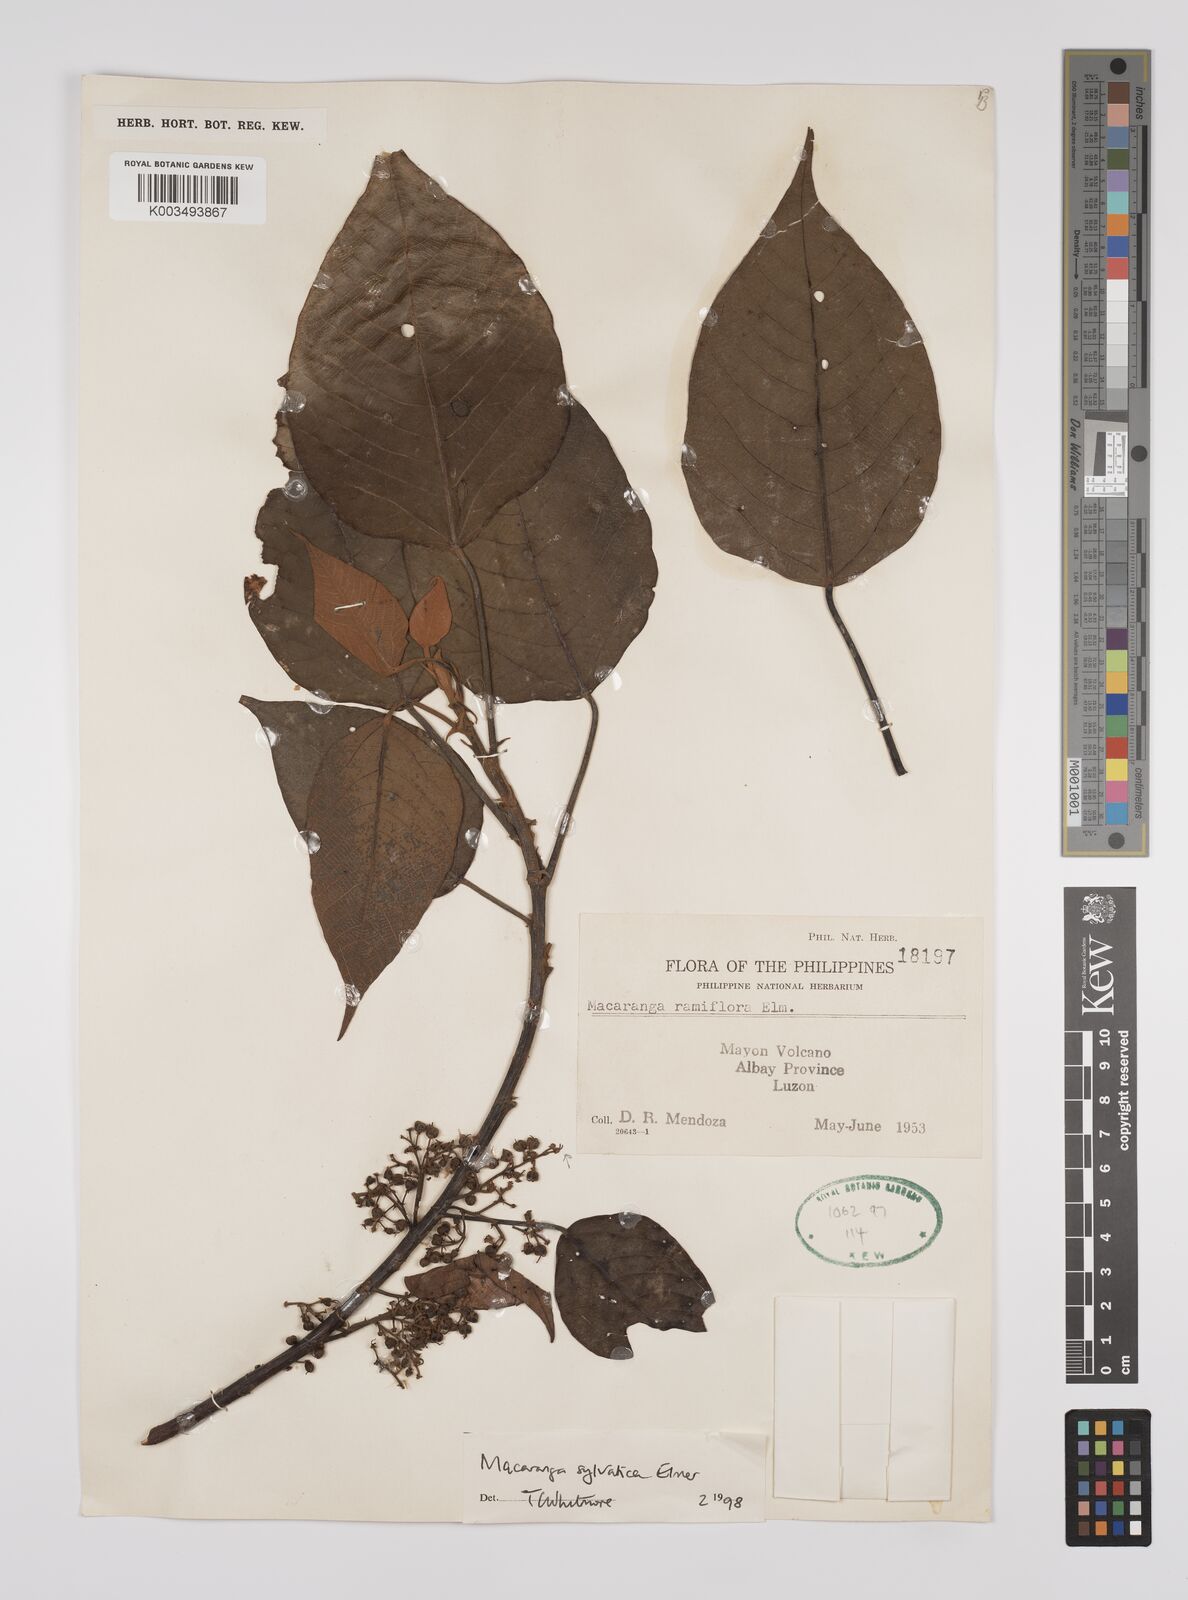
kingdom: Plantae
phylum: Tracheophyta
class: Magnoliopsida
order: Malpighiales
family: Euphorbiaceae
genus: Macaranga
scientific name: Macaranga sylvatica
